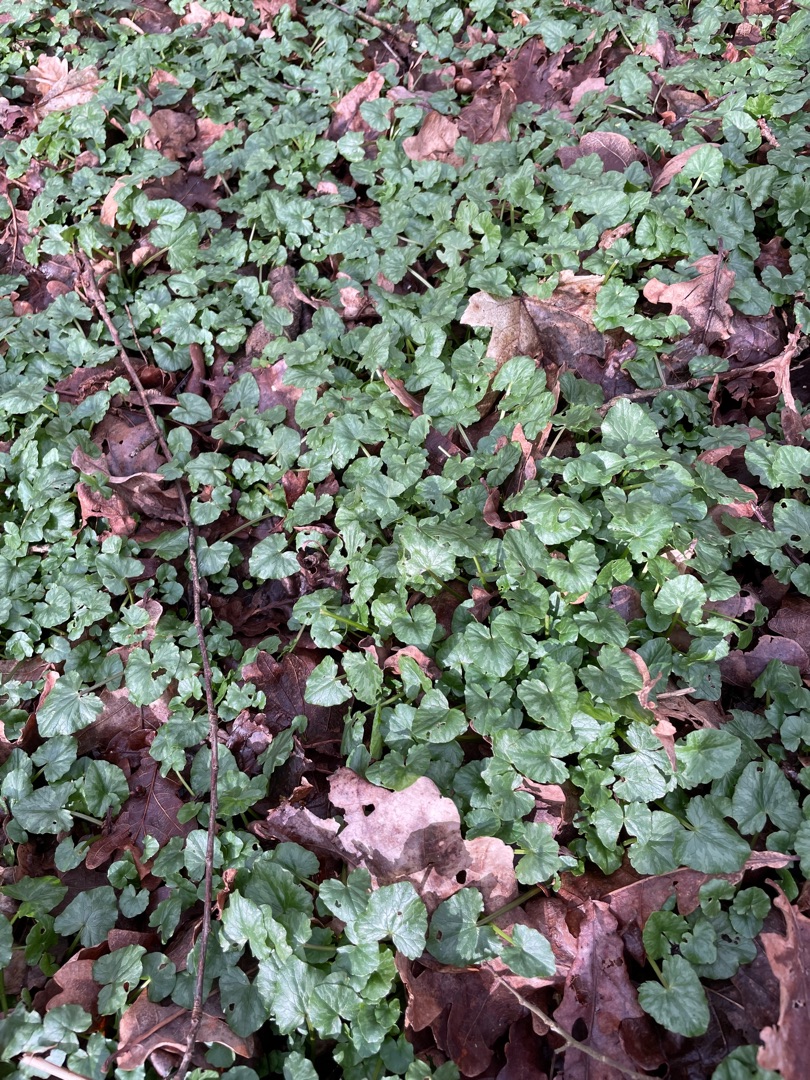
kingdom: Plantae
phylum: Tracheophyta
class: Magnoliopsida
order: Ranunculales
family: Ranunculaceae
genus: Ficaria
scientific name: Ficaria verna
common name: Vorterod
